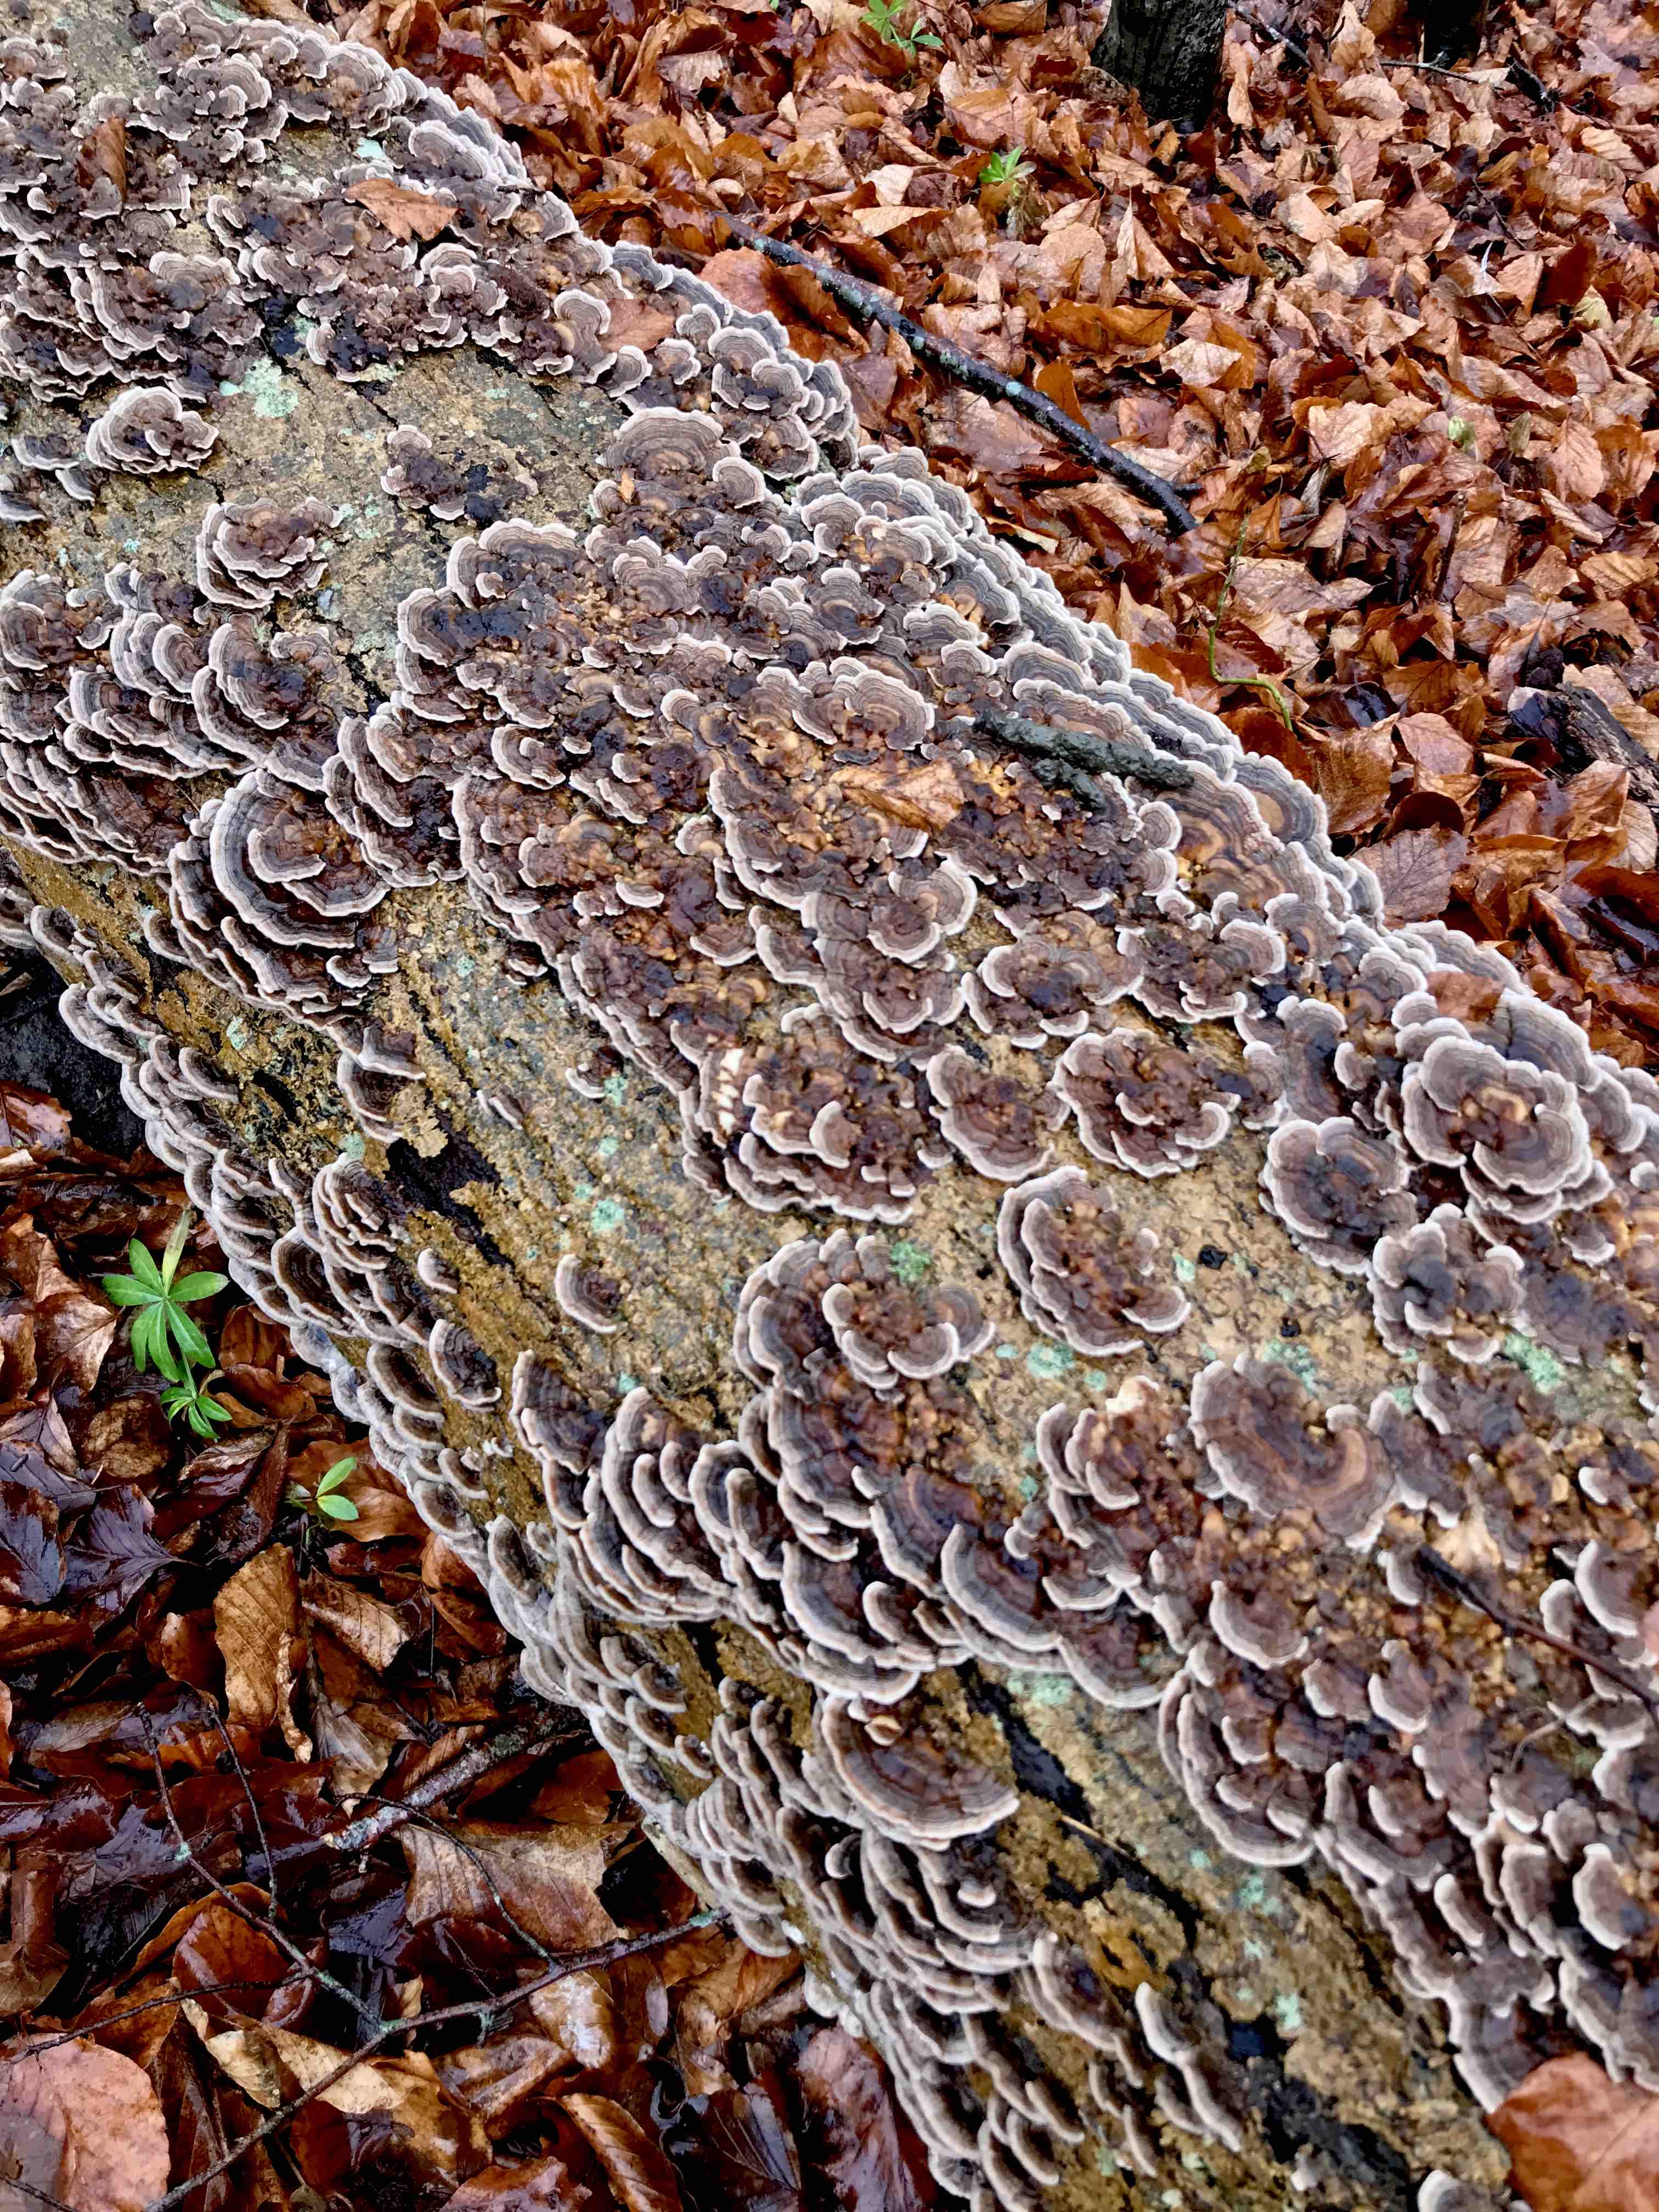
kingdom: Fungi
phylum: Basidiomycota
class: Agaricomycetes
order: Polyporales
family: Polyporaceae
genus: Trametes
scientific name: Trametes versicolor
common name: broget læderporesvamp
